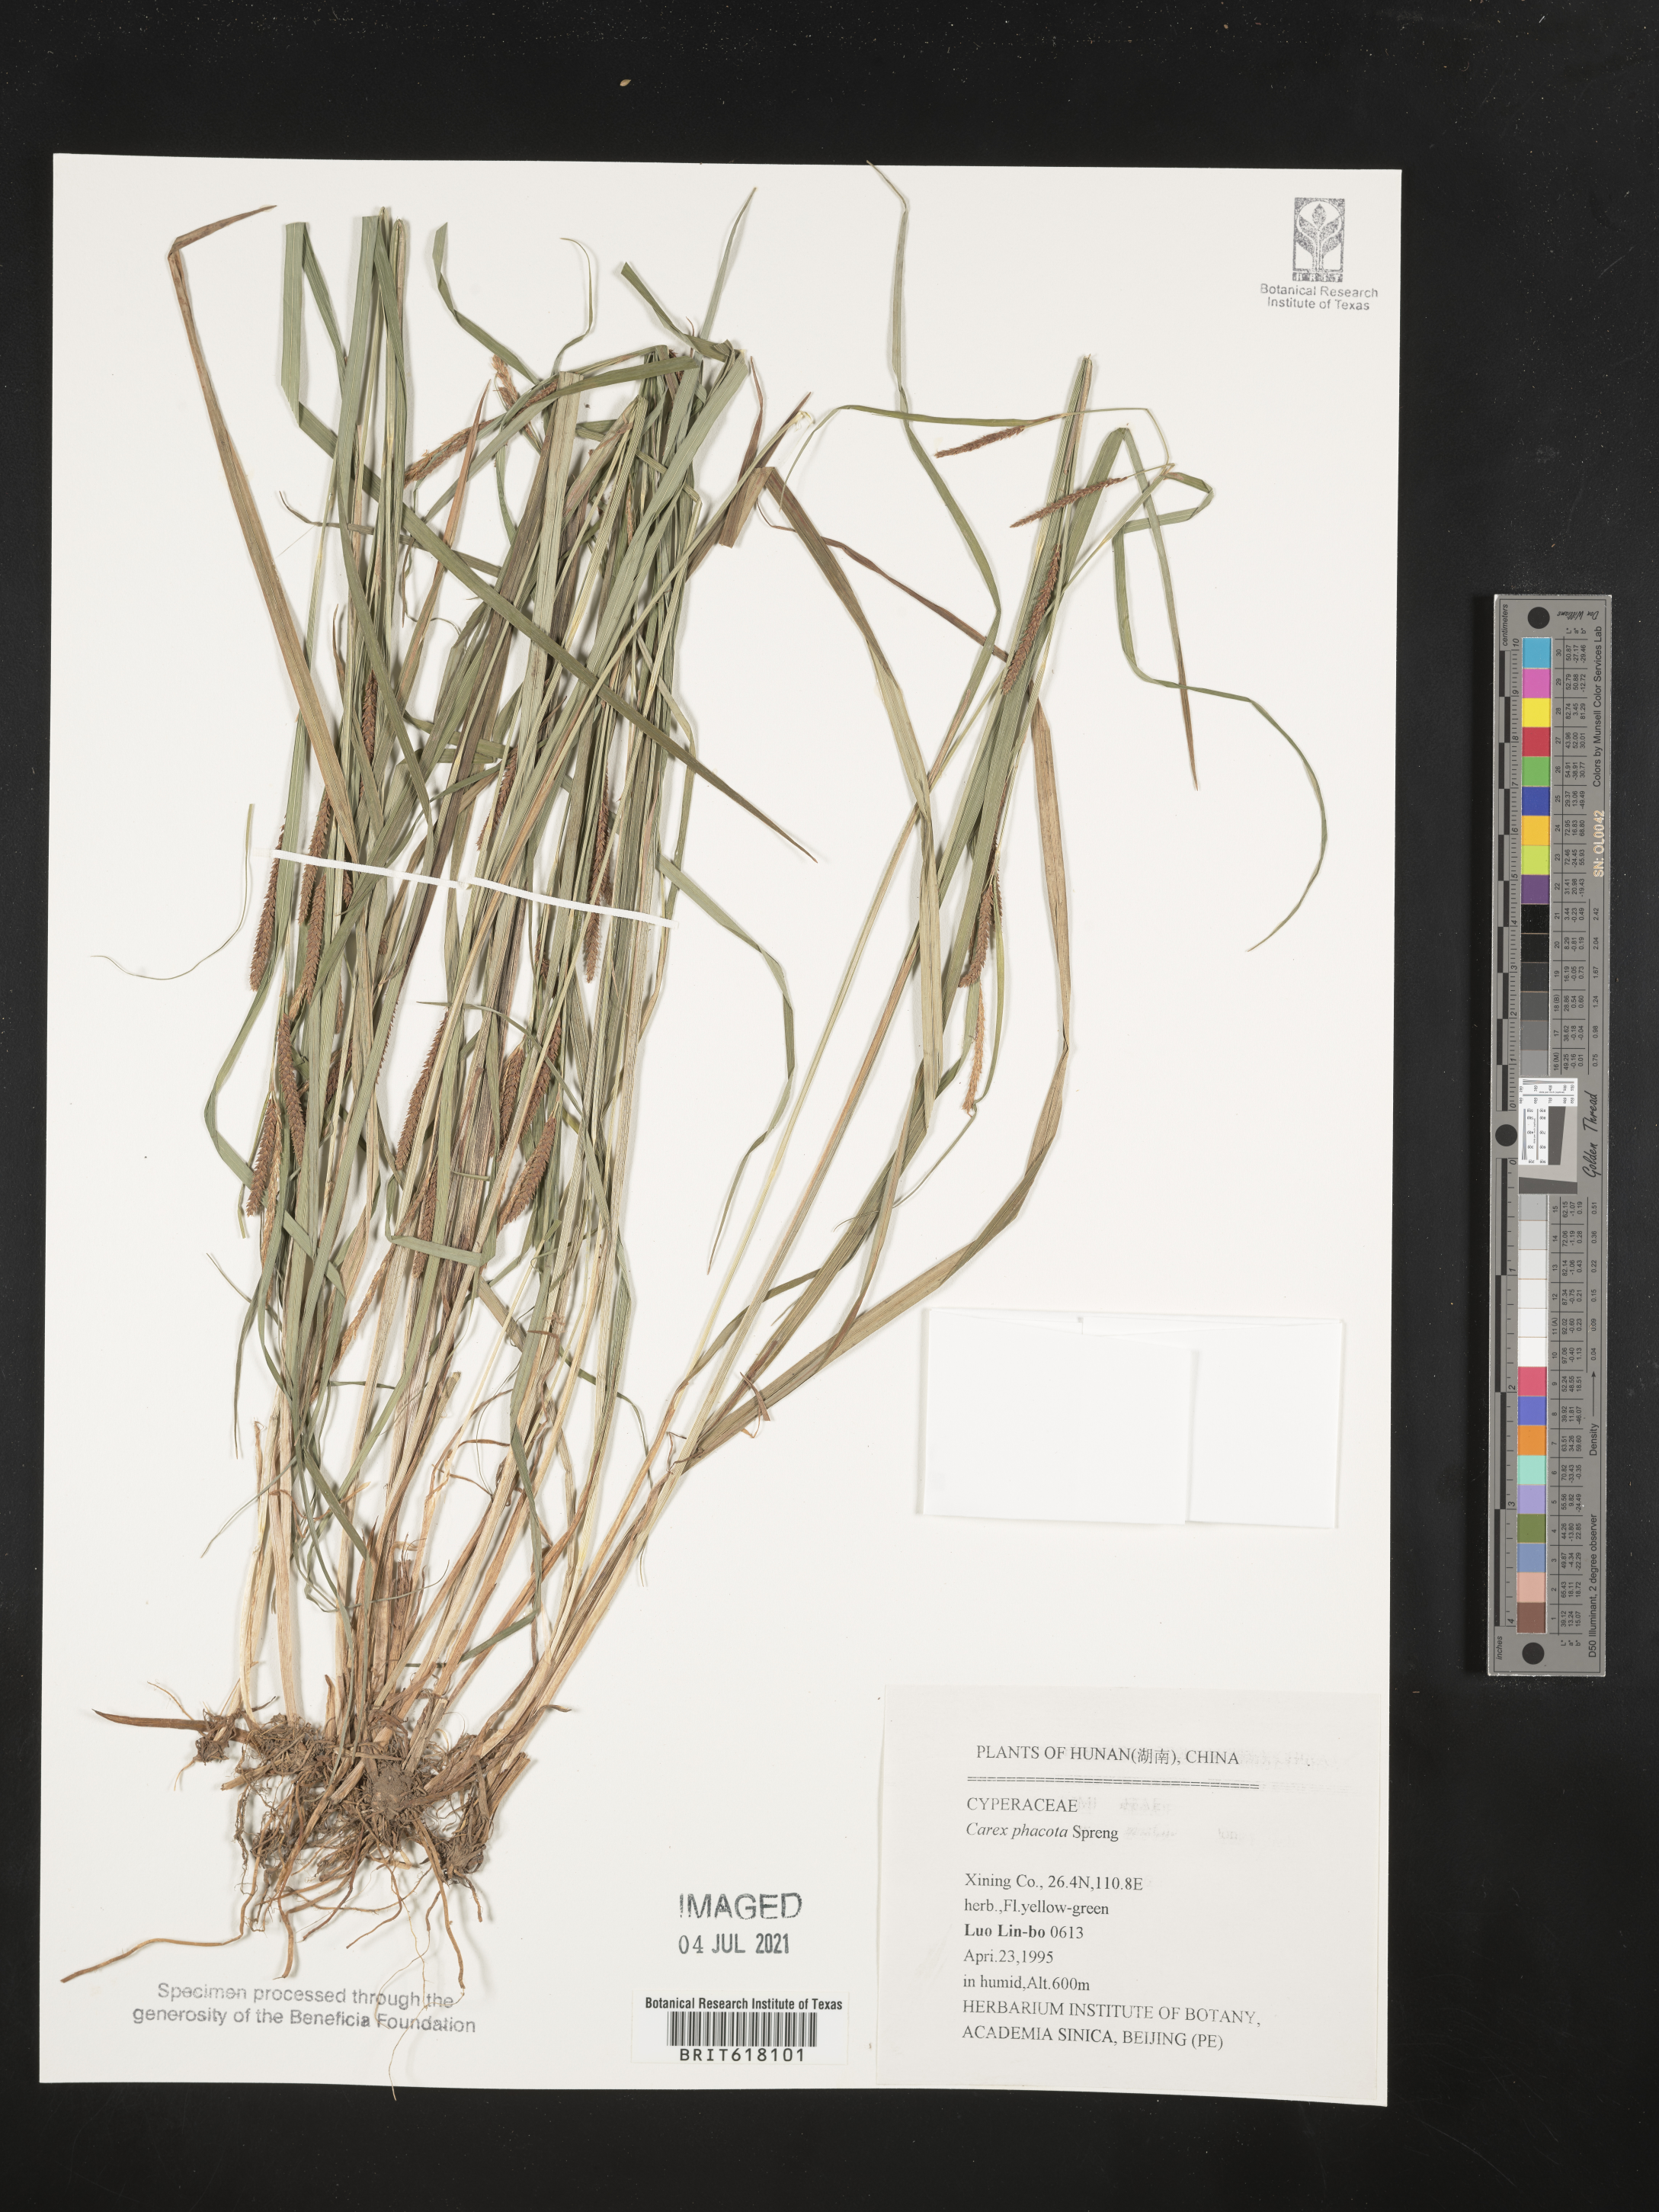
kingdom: Plantae
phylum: Tracheophyta
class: Liliopsida
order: Poales
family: Cyperaceae
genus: Carex
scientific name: Carex phacota
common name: Lakeshore sedge
